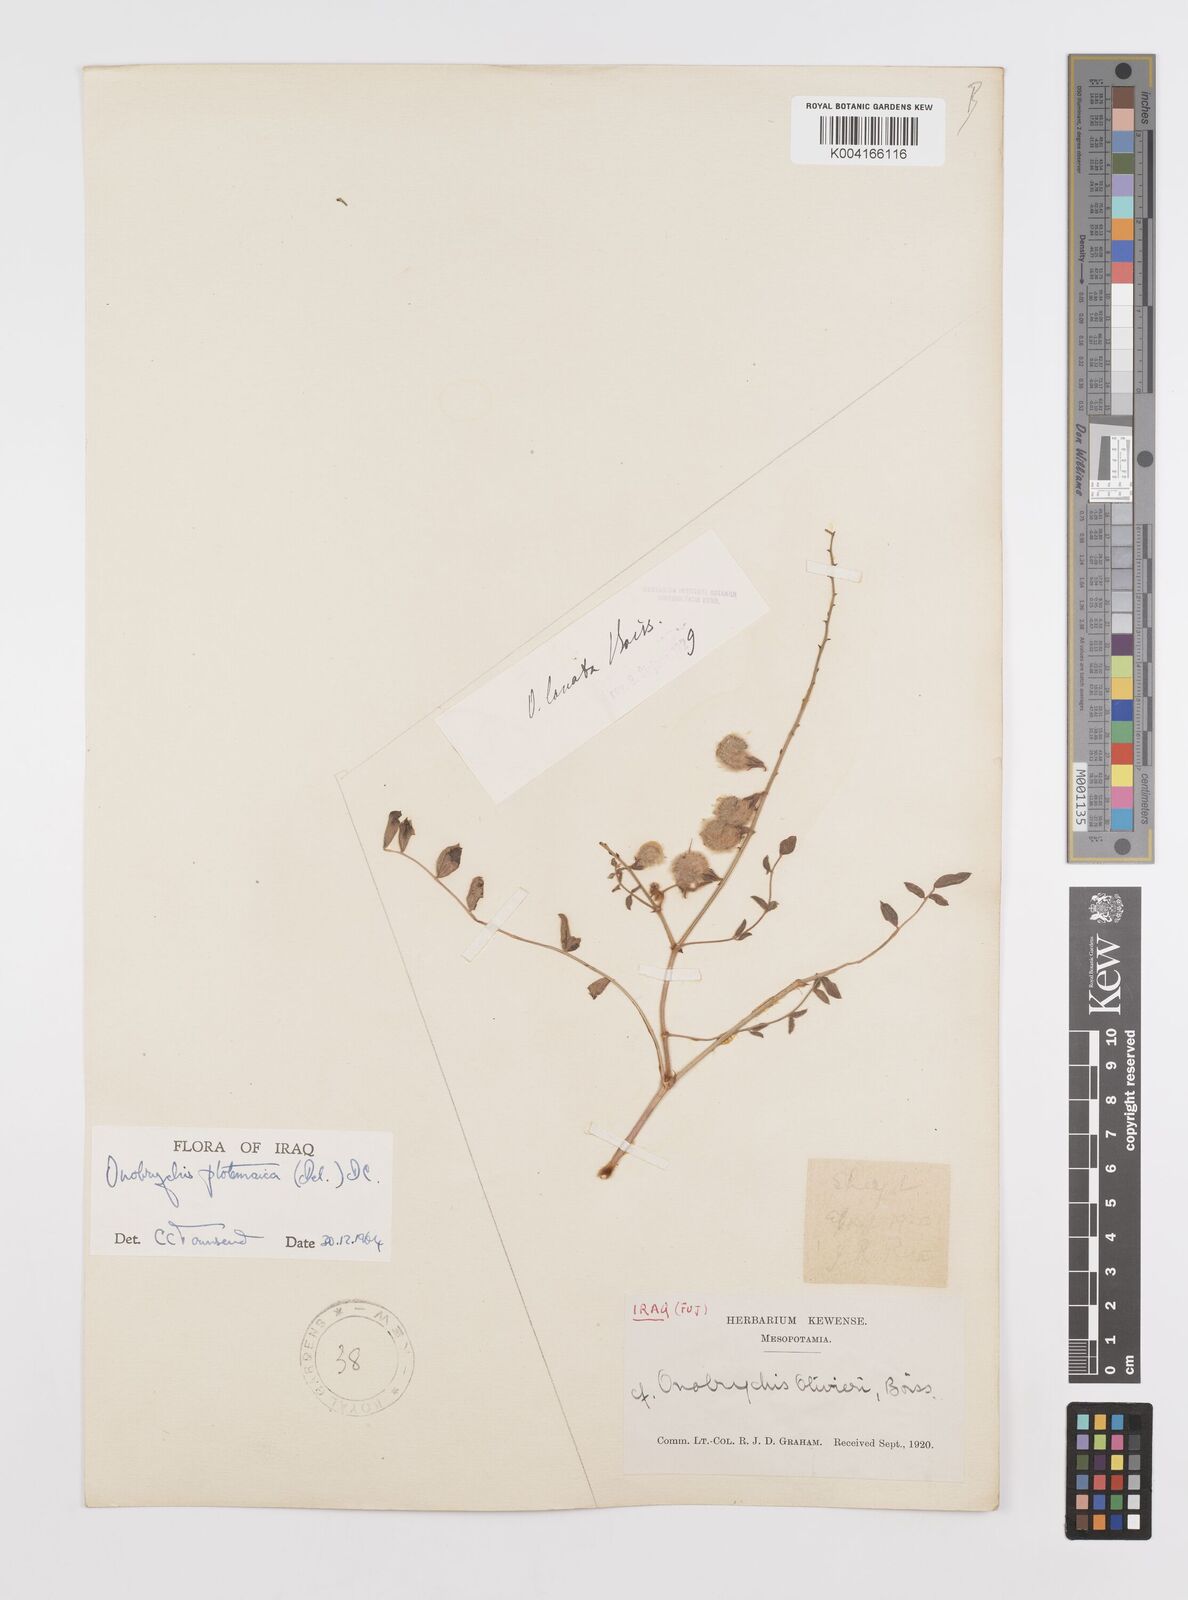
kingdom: Plantae
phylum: Tracheophyta
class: Magnoliopsida
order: Fabales
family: Fabaceae
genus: Onobrychis
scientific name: Onobrychis ptolemaica
